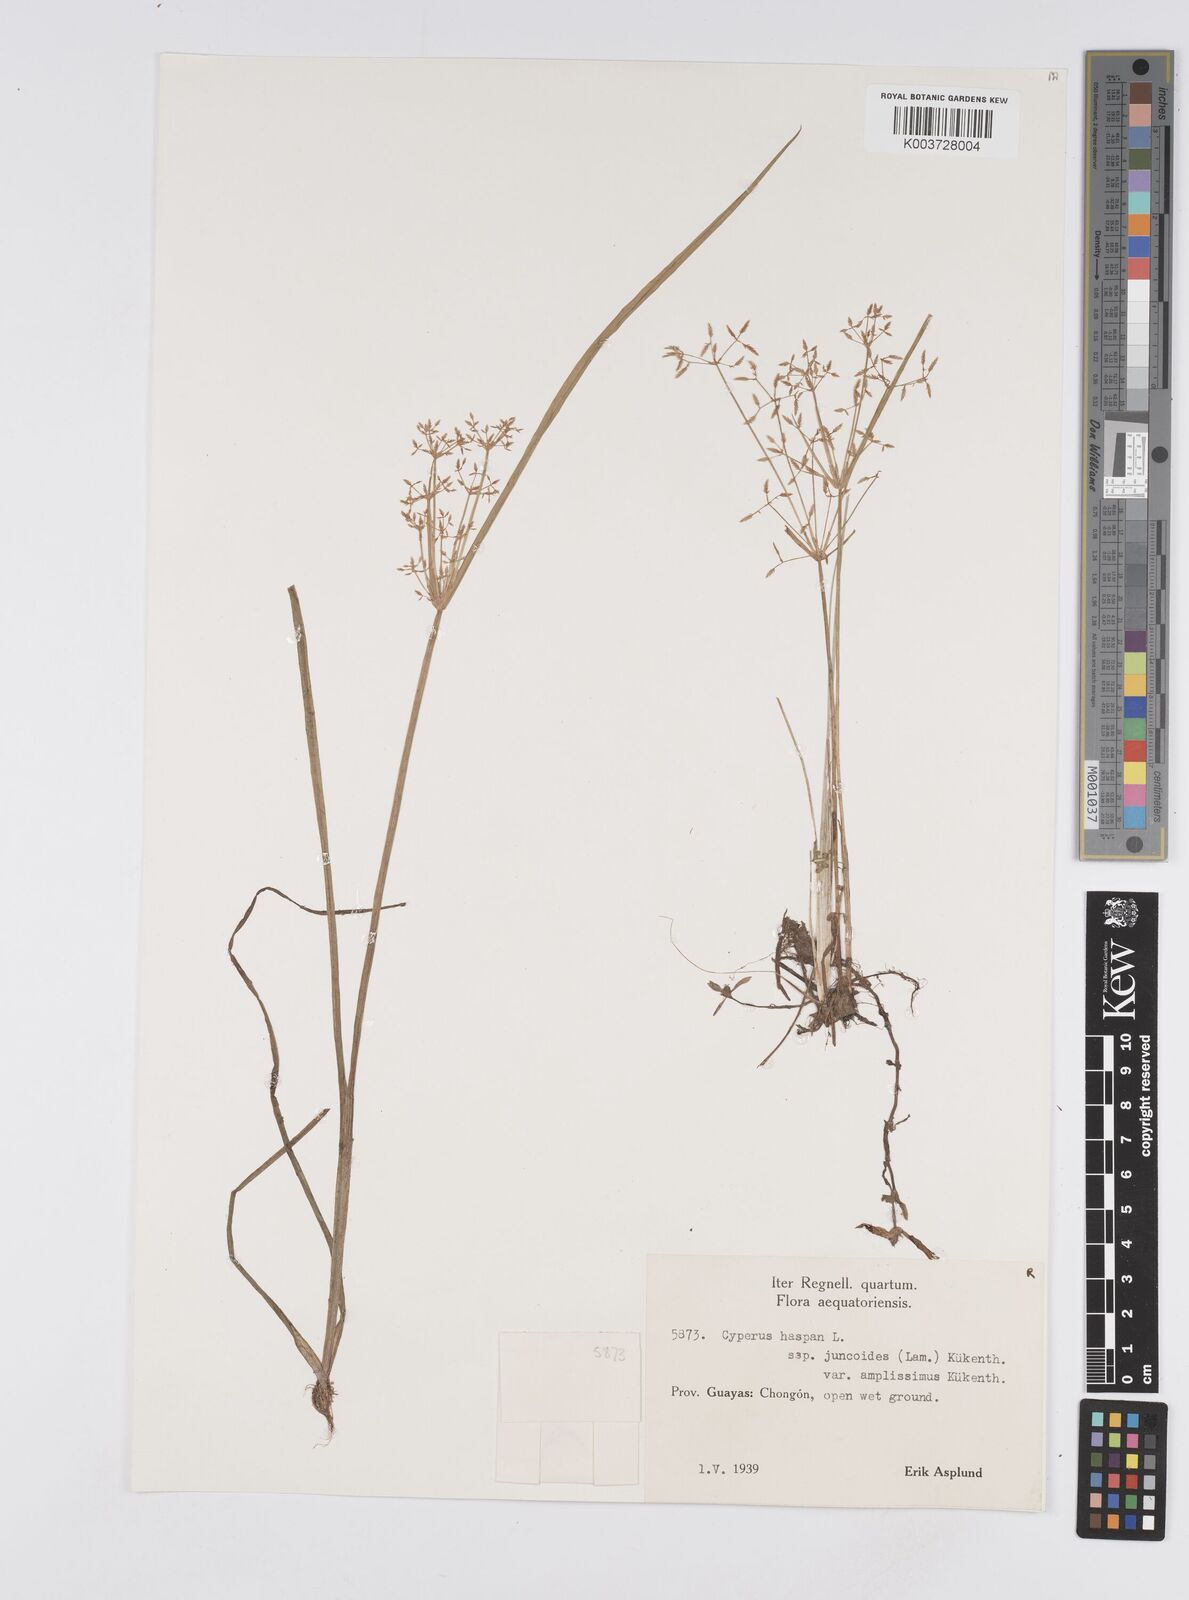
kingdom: Plantae
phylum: Tracheophyta
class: Liliopsida
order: Poales
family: Cyperaceae
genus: Cyperus
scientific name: Cyperus haspan
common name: Haspan flatsedge
